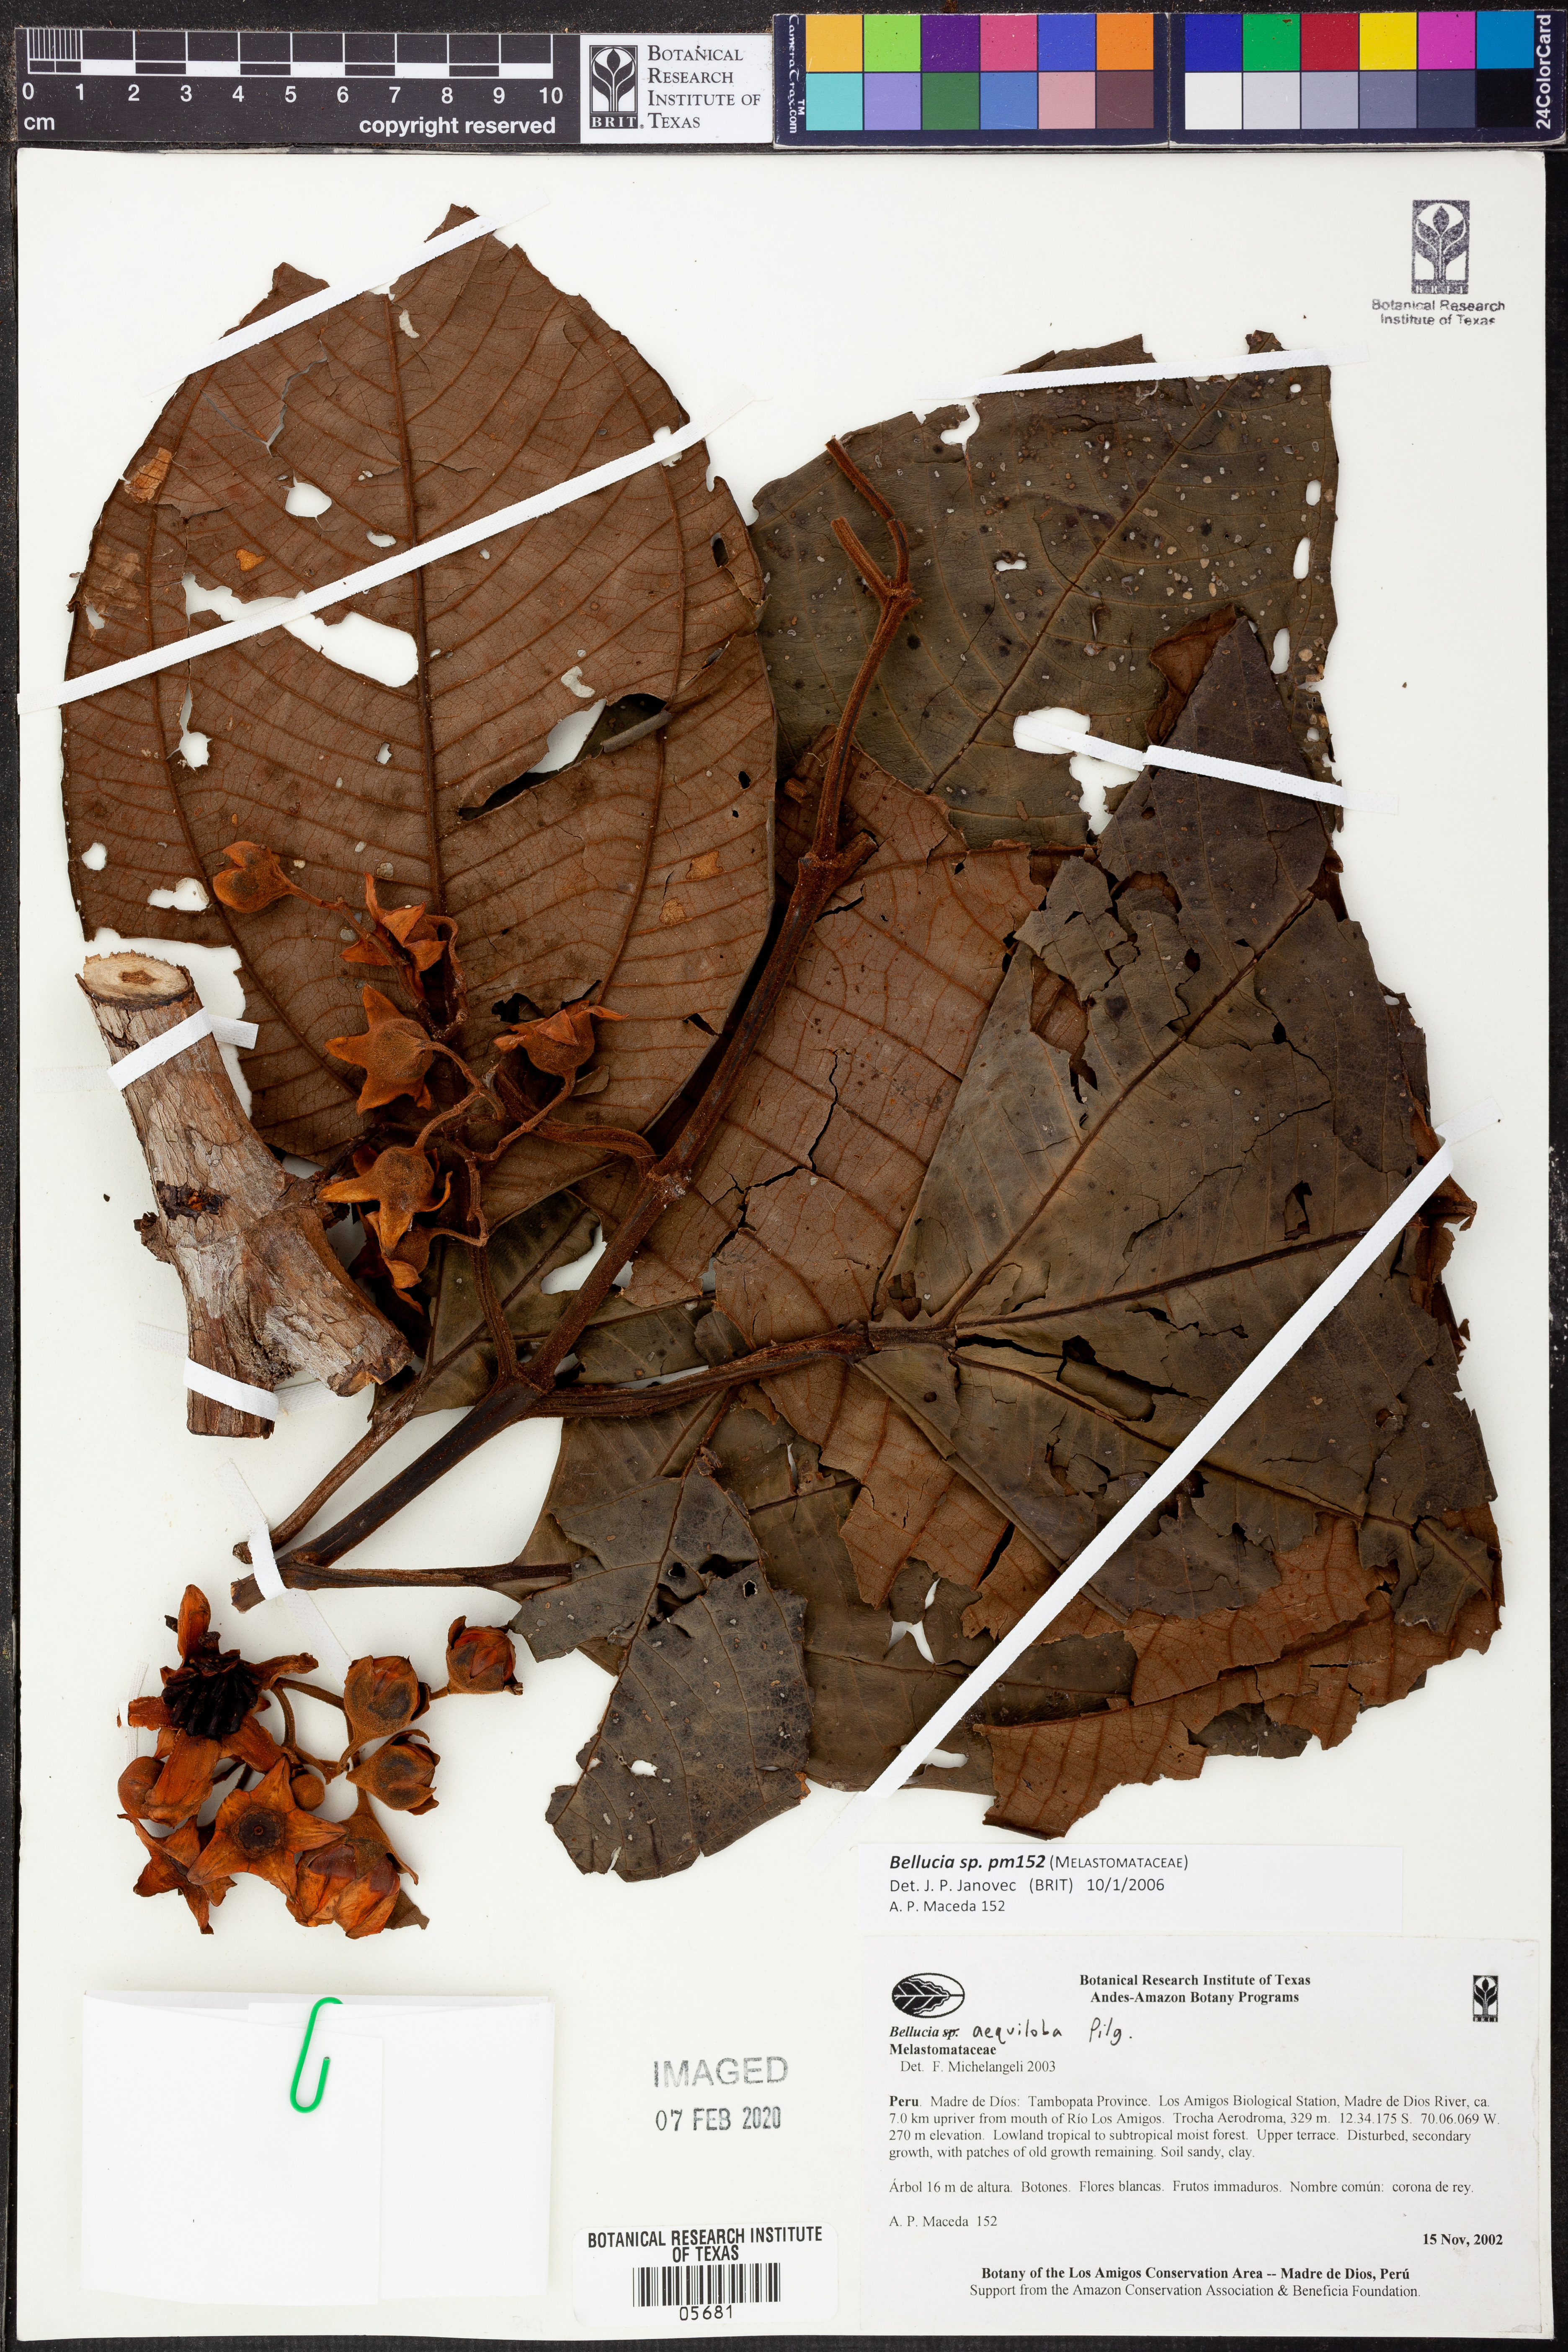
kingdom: Plantae
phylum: Tracheophyta
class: Magnoliopsida
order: Myrtales
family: Melastomataceae
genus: Bellucia
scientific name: Bellucia
